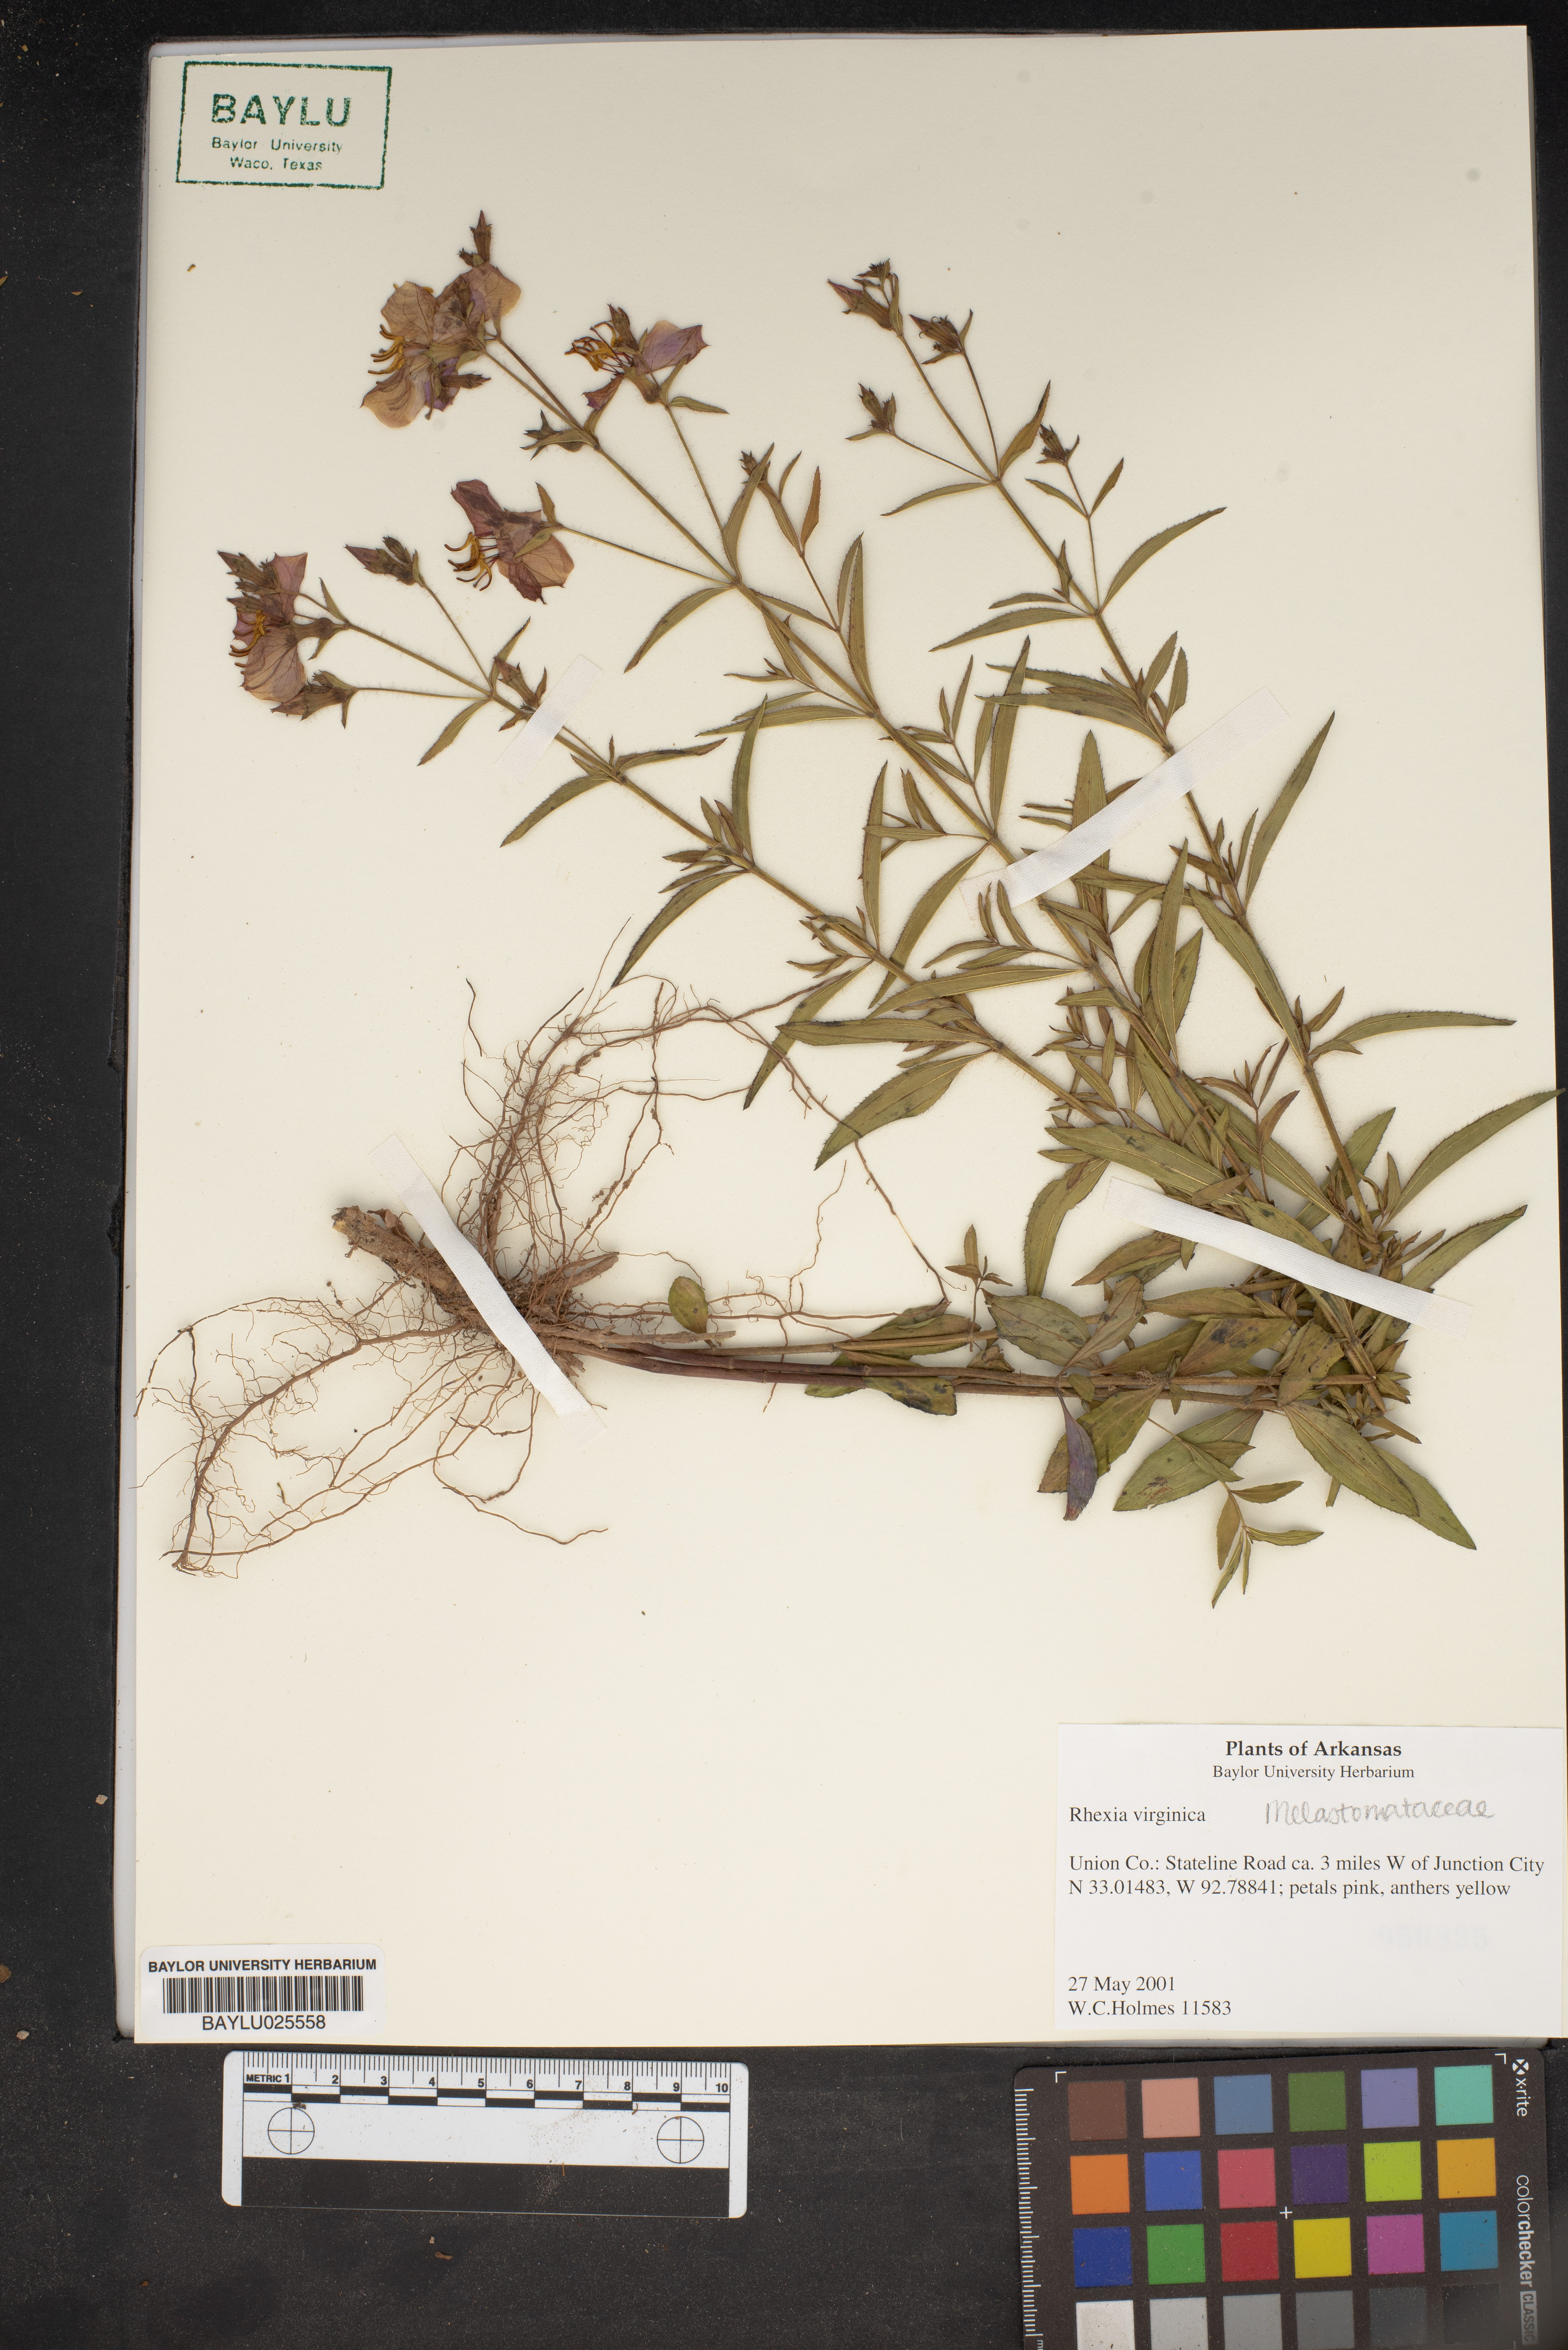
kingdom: Plantae
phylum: Tracheophyta
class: Magnoliopsida
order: Myrtales
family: Melastomataceae
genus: Rhexia
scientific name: Rhexia virginica
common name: Common meadow beauty
